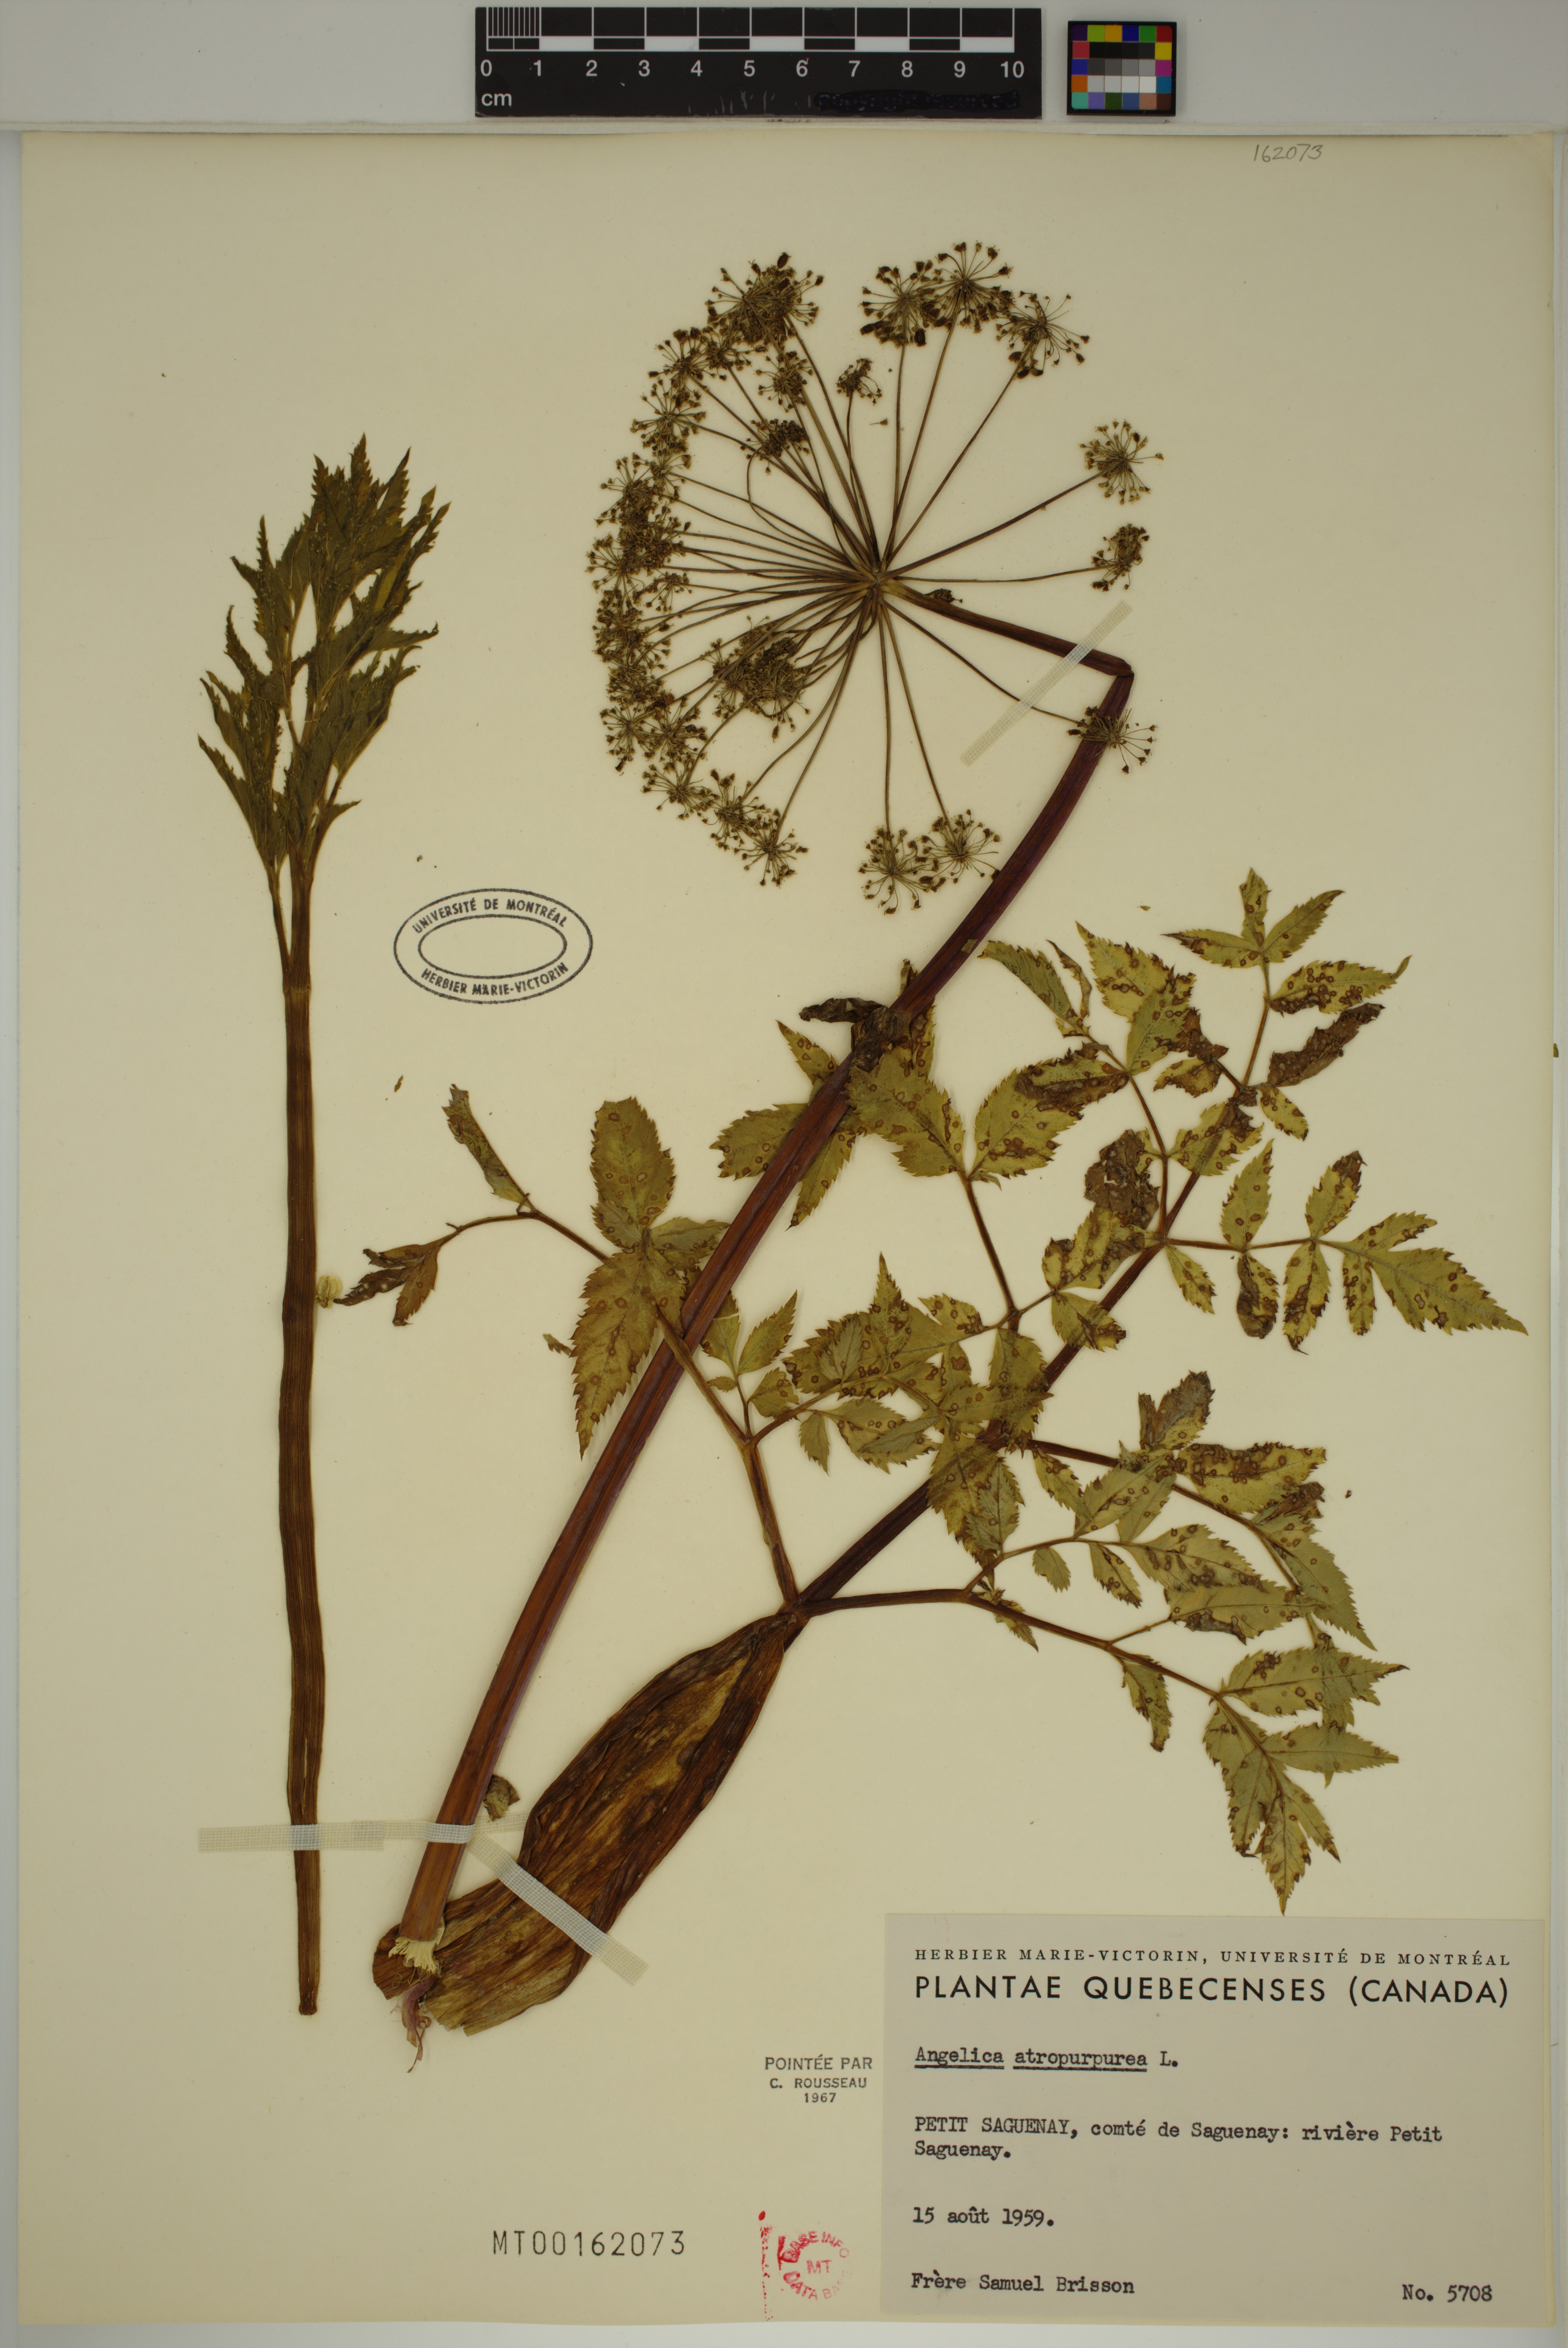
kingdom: Plantae
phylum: Tracheophyta
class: Magnoliopsida
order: Apiales
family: Apiaceae
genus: Angelica
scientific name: Angelica atropurpurea
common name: Great angelica
